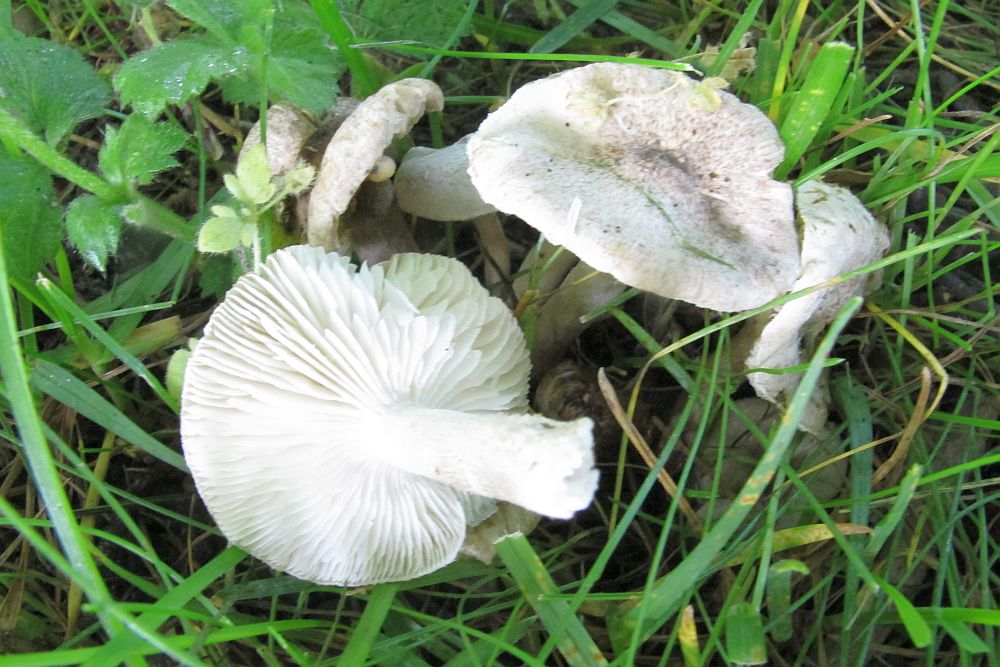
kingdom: Fungi
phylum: Basidiomycota
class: Agaricomycetes
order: Agaricales
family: Tricholomataceae
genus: Tricholoma
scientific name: Tricholoma scalpturatum
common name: gulplettet ridderhat
